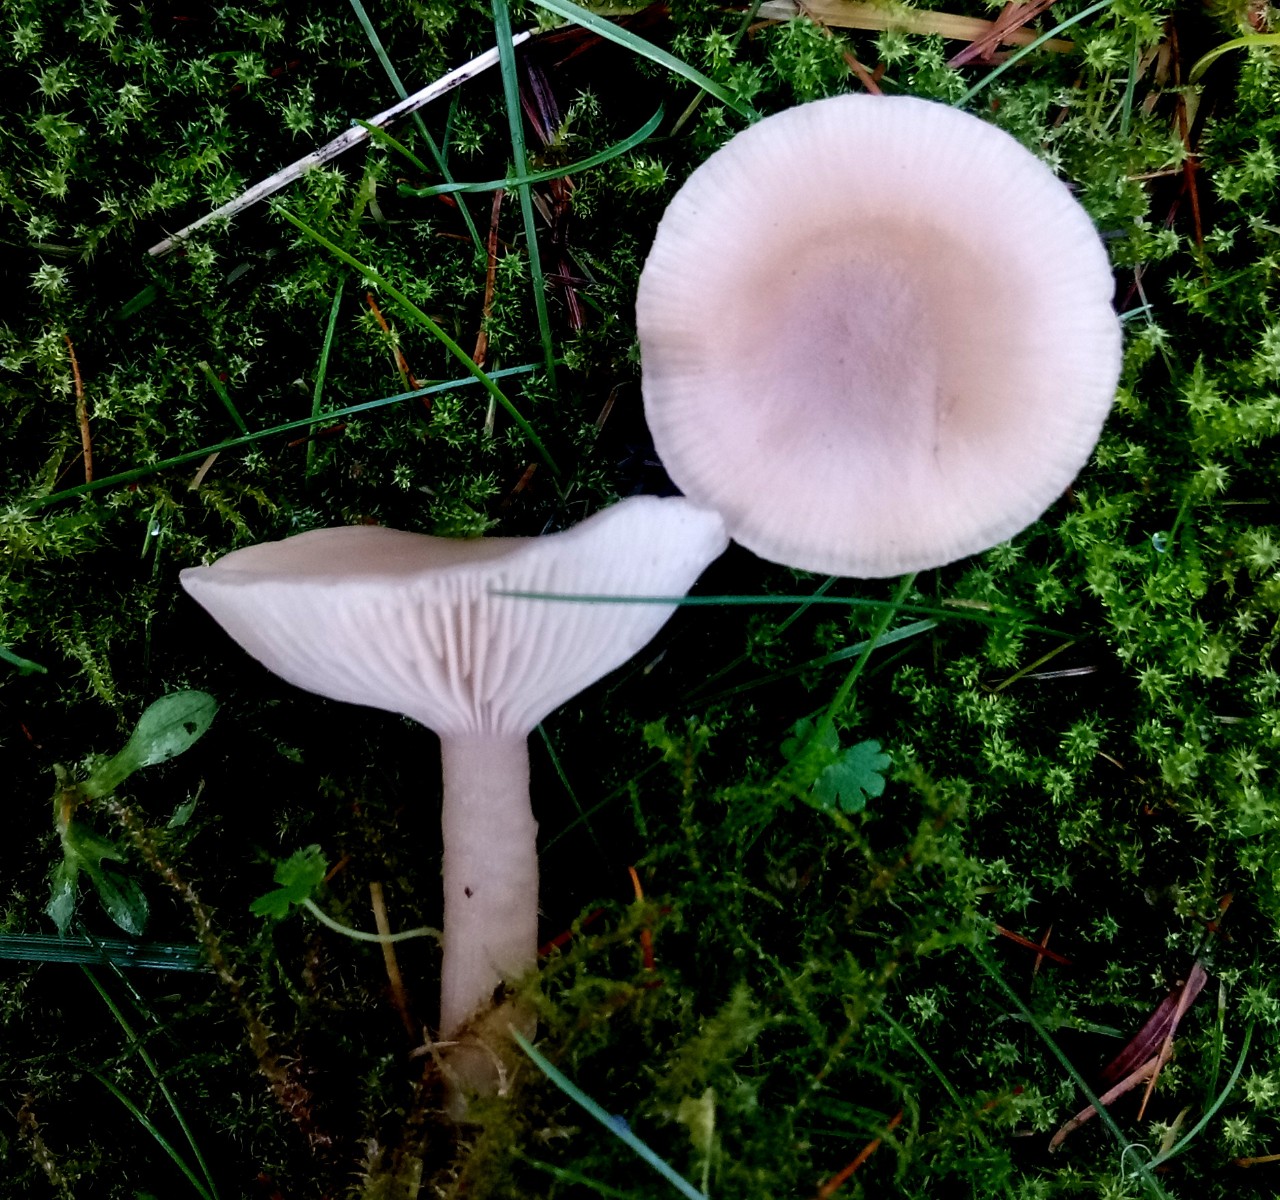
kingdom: Fungi
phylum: Basidiomycota
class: Agaricomycetes
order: Agaricales
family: Tricholomataceae
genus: Clitocybe
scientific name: Clitocybe fragrans
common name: vellugtende tragthat
